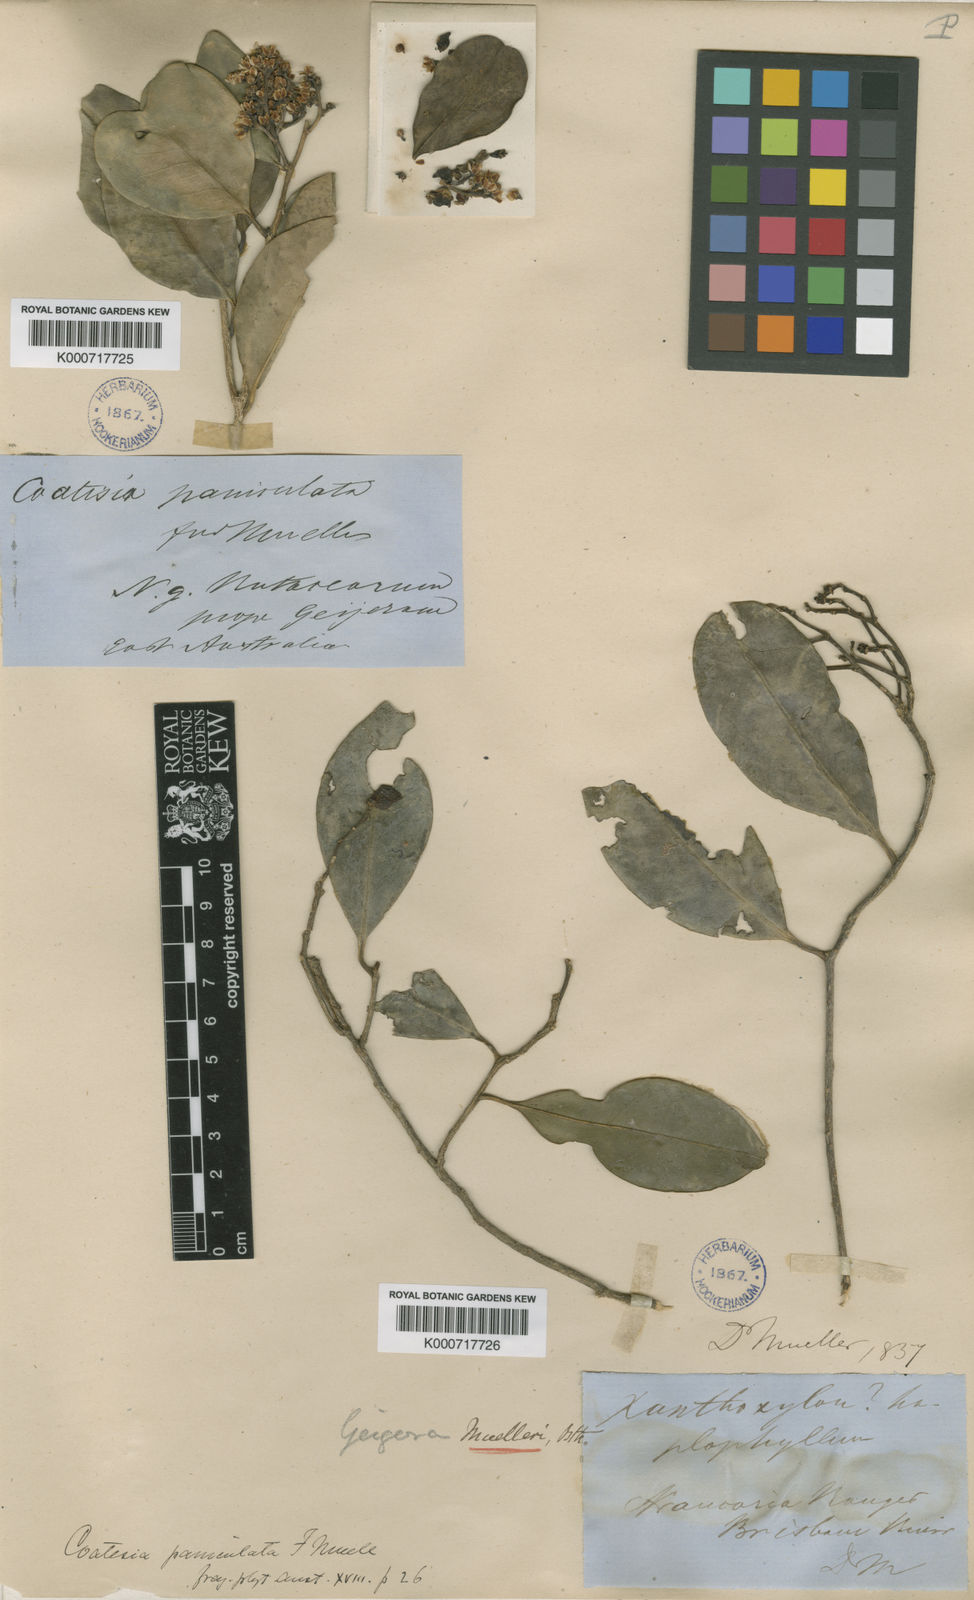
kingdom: Plantae
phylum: Tracheophyta
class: Magnoliopsida
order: Sapindales
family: Rutaceae
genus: Geijera
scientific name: Geijera paniculata
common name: Capivi
